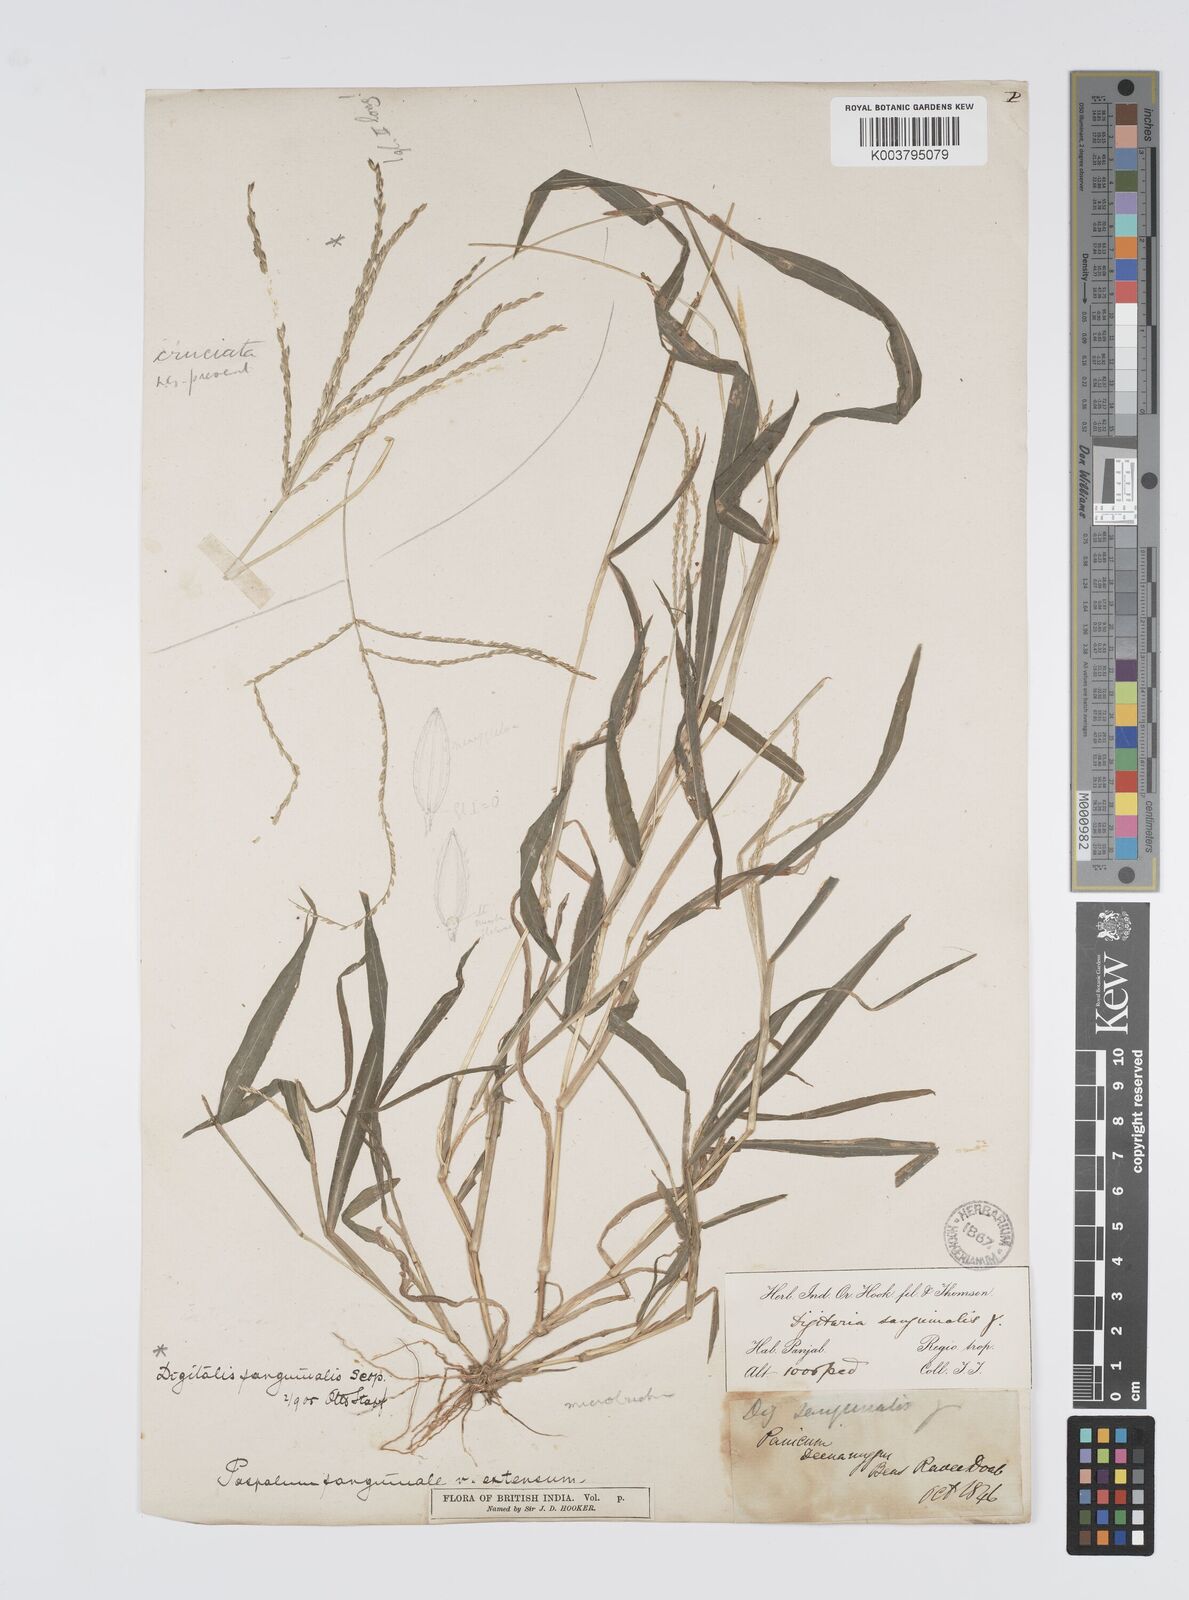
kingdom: Plantae
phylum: Tracheophyta
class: Liliopsida
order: Poales
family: Poaceae
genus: Digitaria
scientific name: Digitaria setigera
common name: East indian crabgrass
